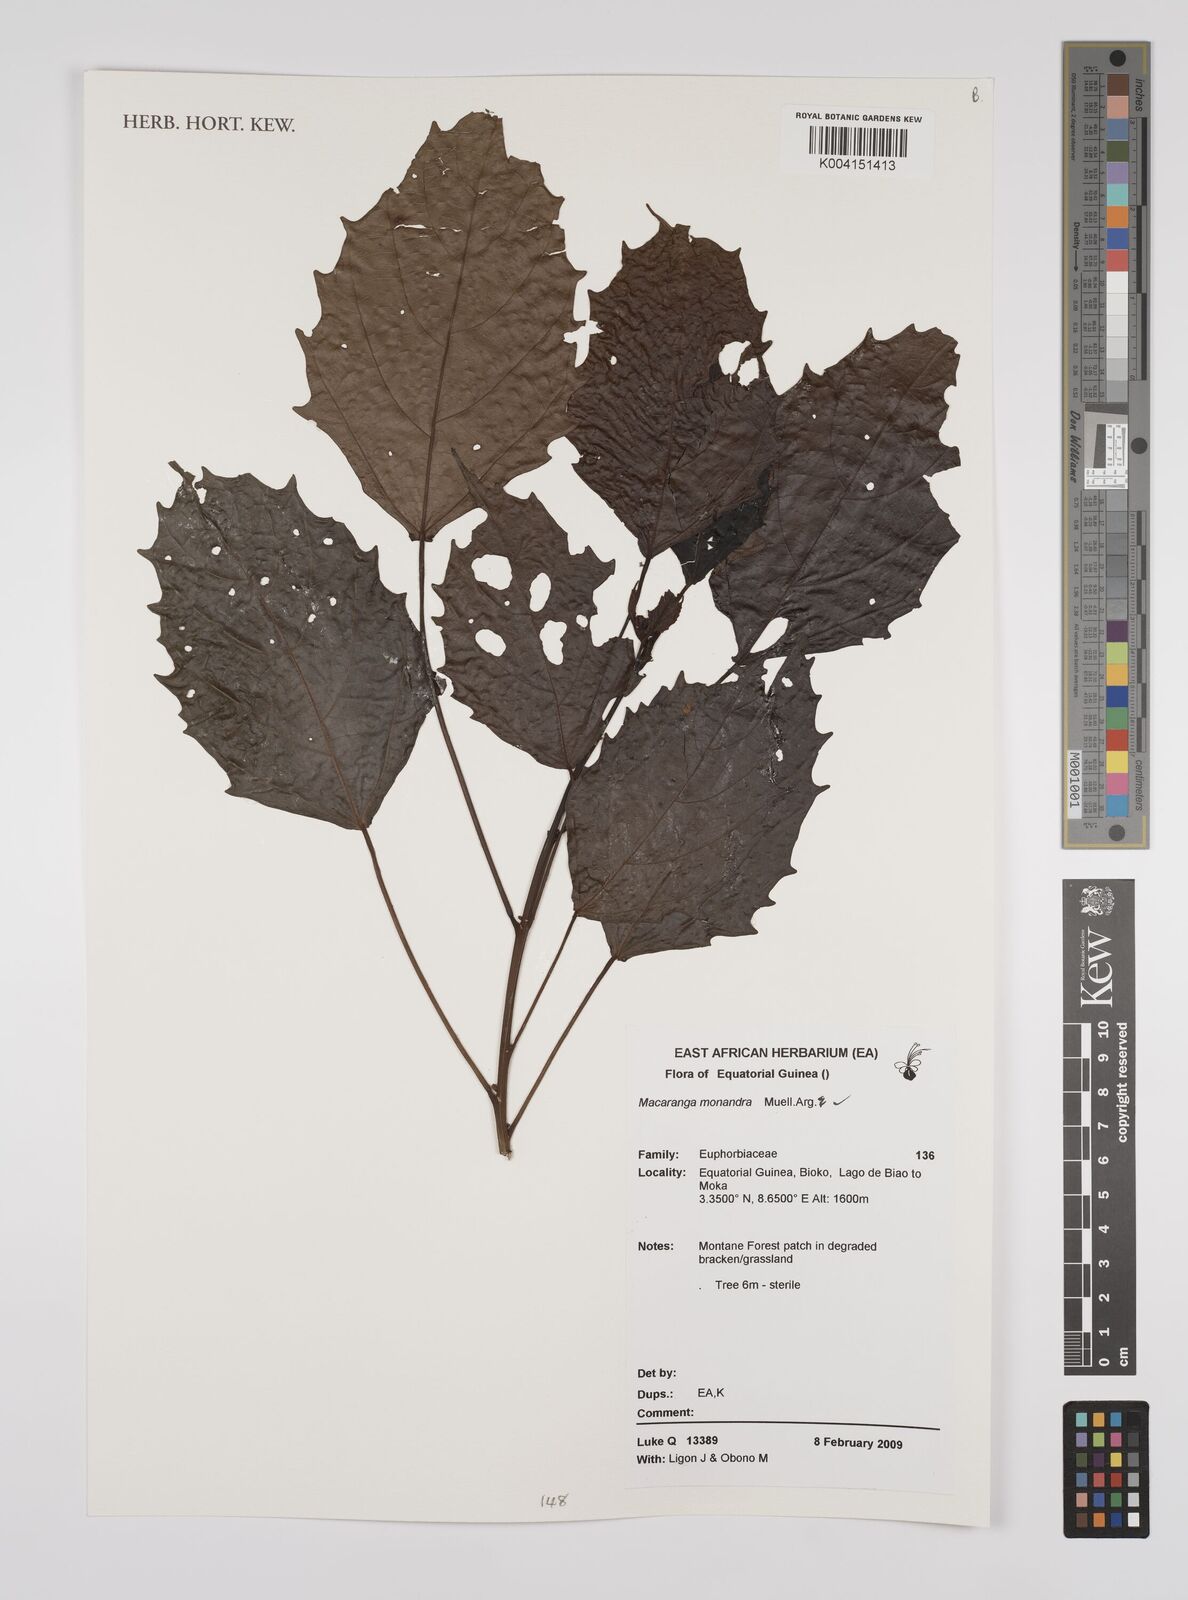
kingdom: Plantae
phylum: Tracheophyta
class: Magnoliopsida
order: Malpighiales
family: Euphorbiaceae
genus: Macaranga
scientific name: Macaranga monandra
